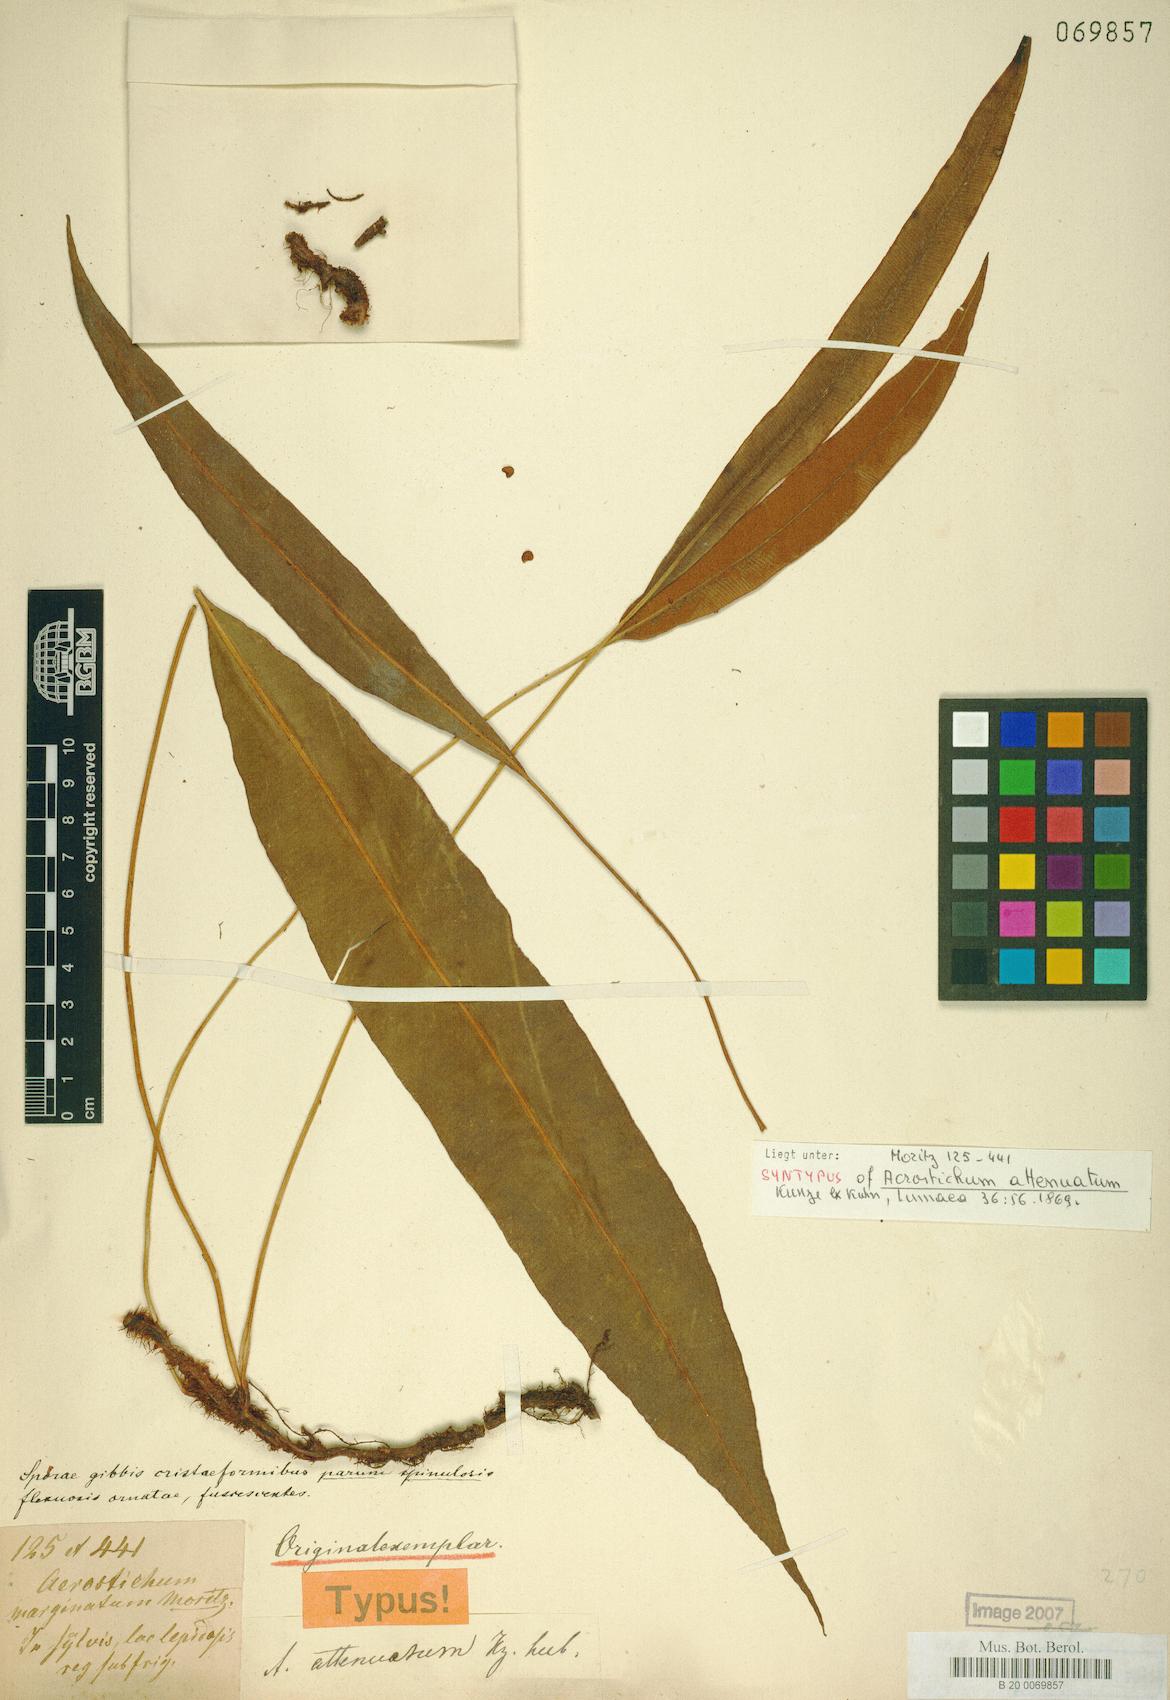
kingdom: Plantae
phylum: Tracheophyta
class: Polypodiopsida
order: Polypodiales
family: Dryopteridaceae
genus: Elaphoglossum
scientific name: Elaphoglossum hoffmannii
